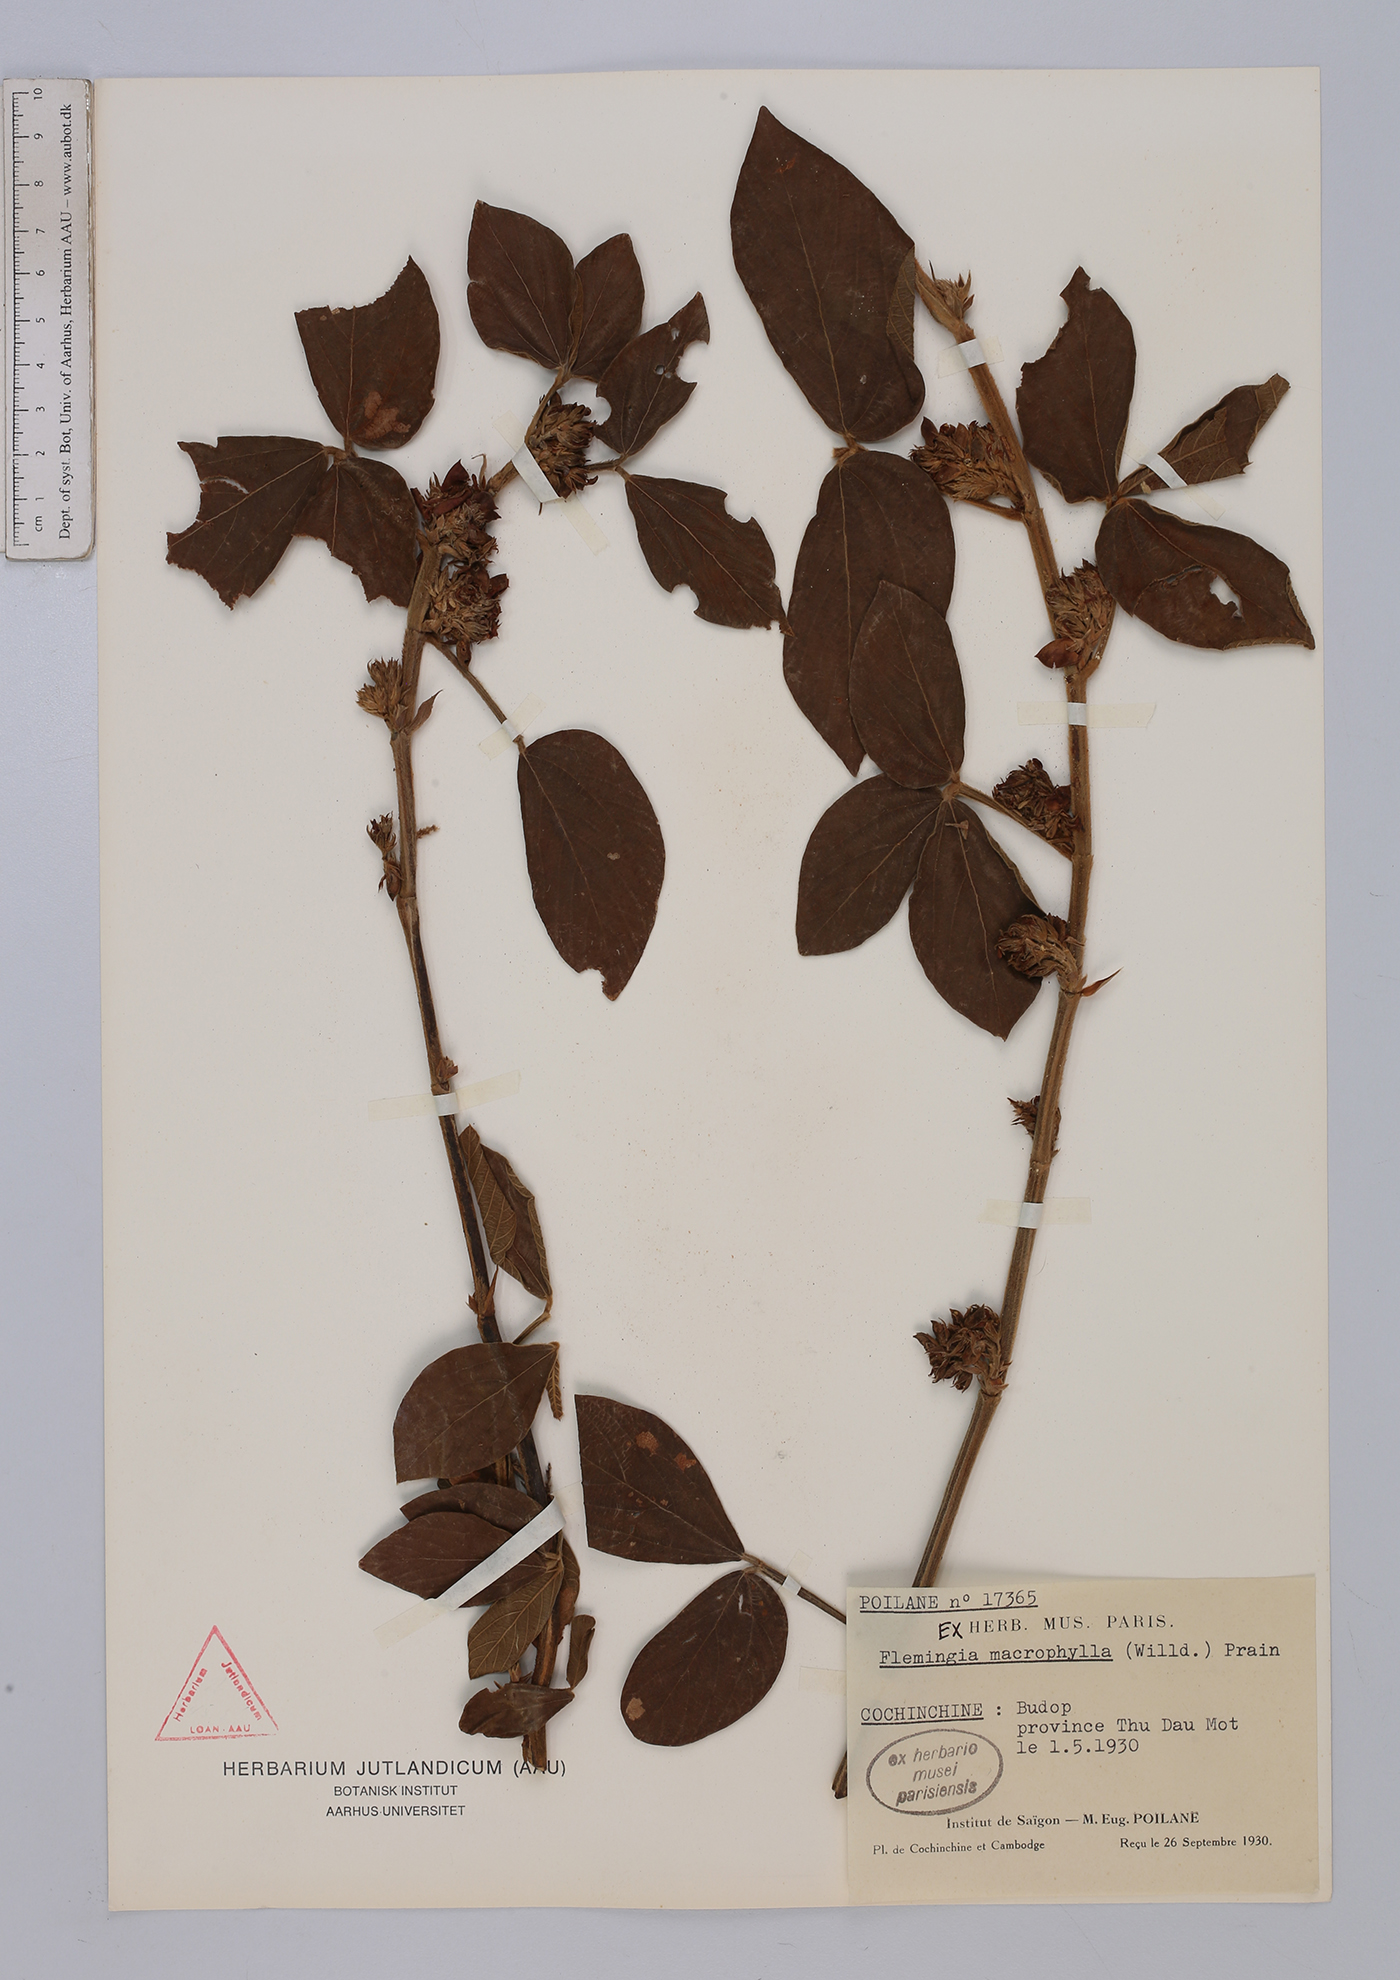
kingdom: Plantae
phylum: Tracheophyta
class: Magnoliopsida
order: Fabales
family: Fabaceae
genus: Flemingia
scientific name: Flemingia macrophylla
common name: Flemingia
